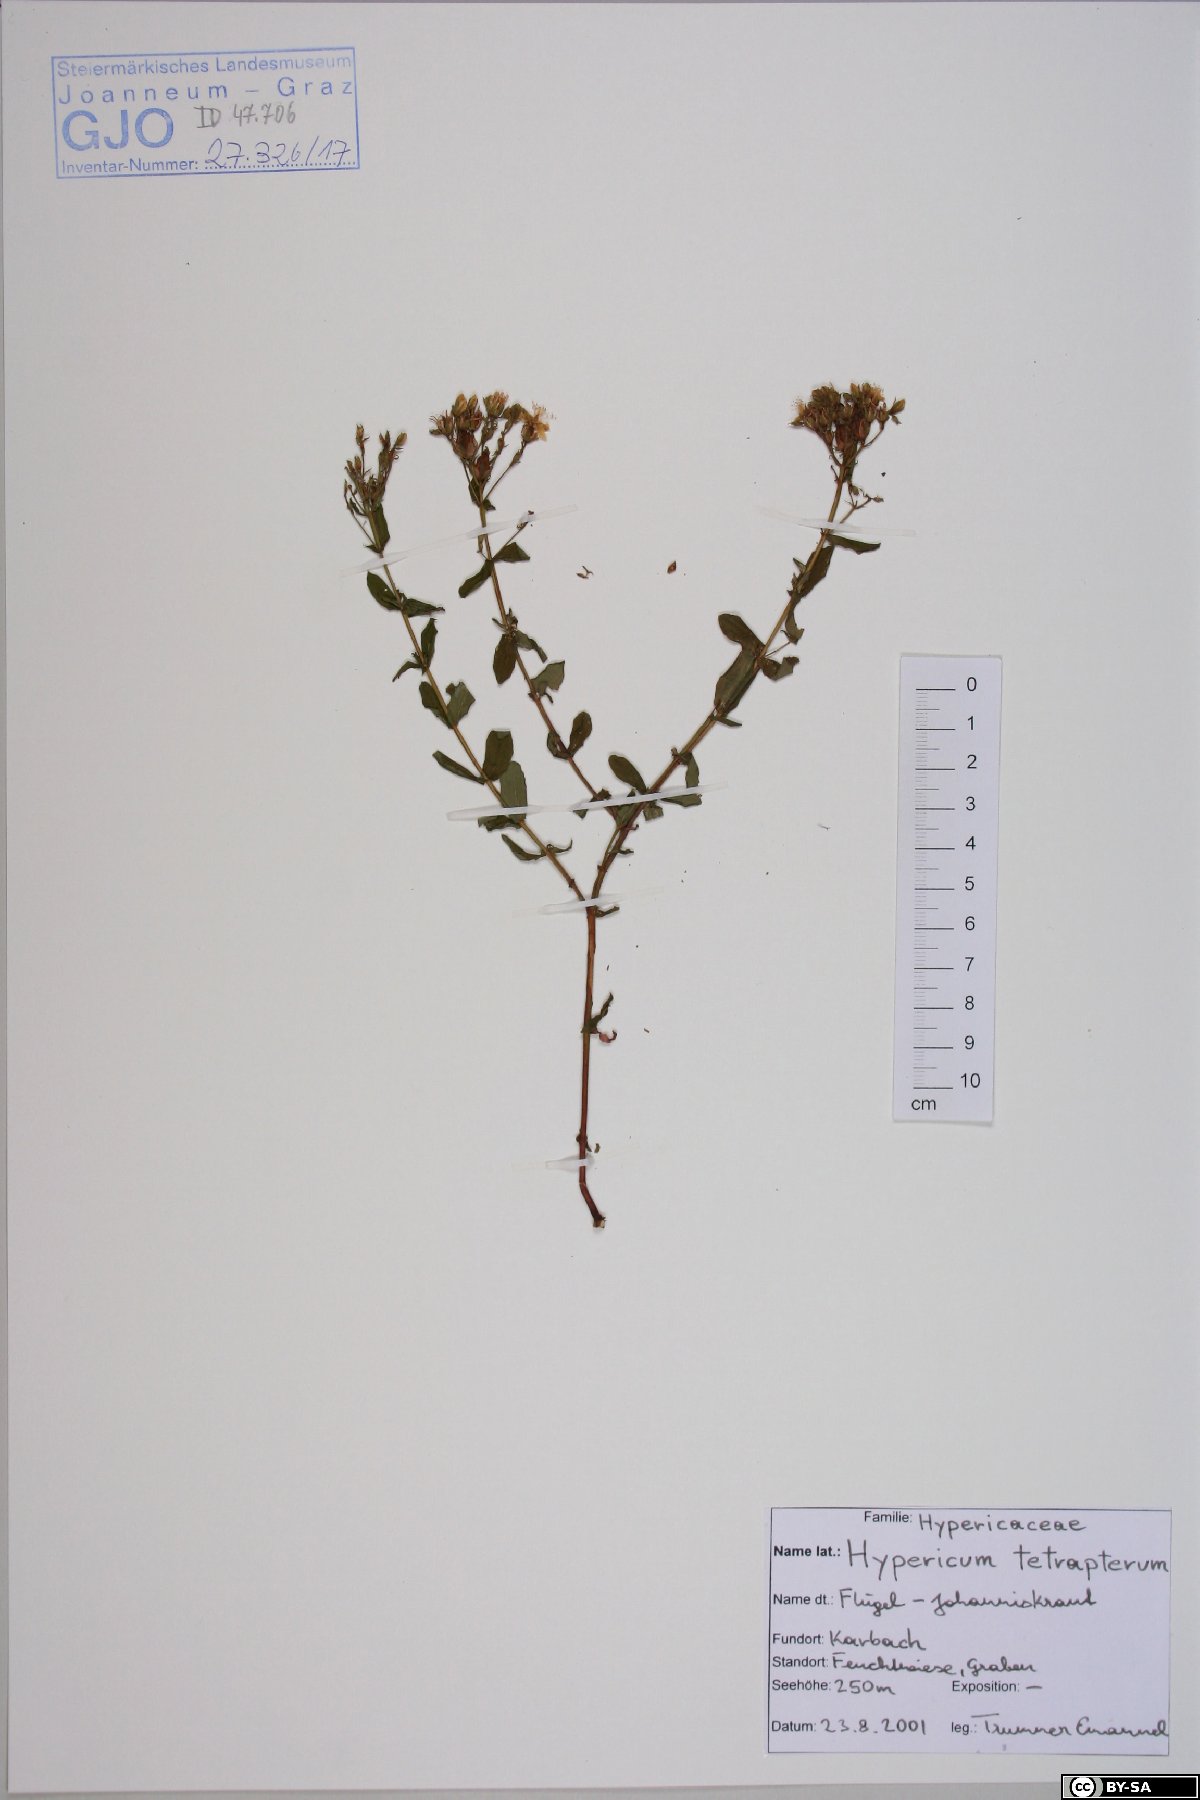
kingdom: Plantae
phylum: Tracheophyta
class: Magnoliopsida
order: Malpighiales
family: Hypericaceae
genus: Hypericum
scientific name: Hypericum tetrapterum
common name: Square-stalked st. john's-wort
